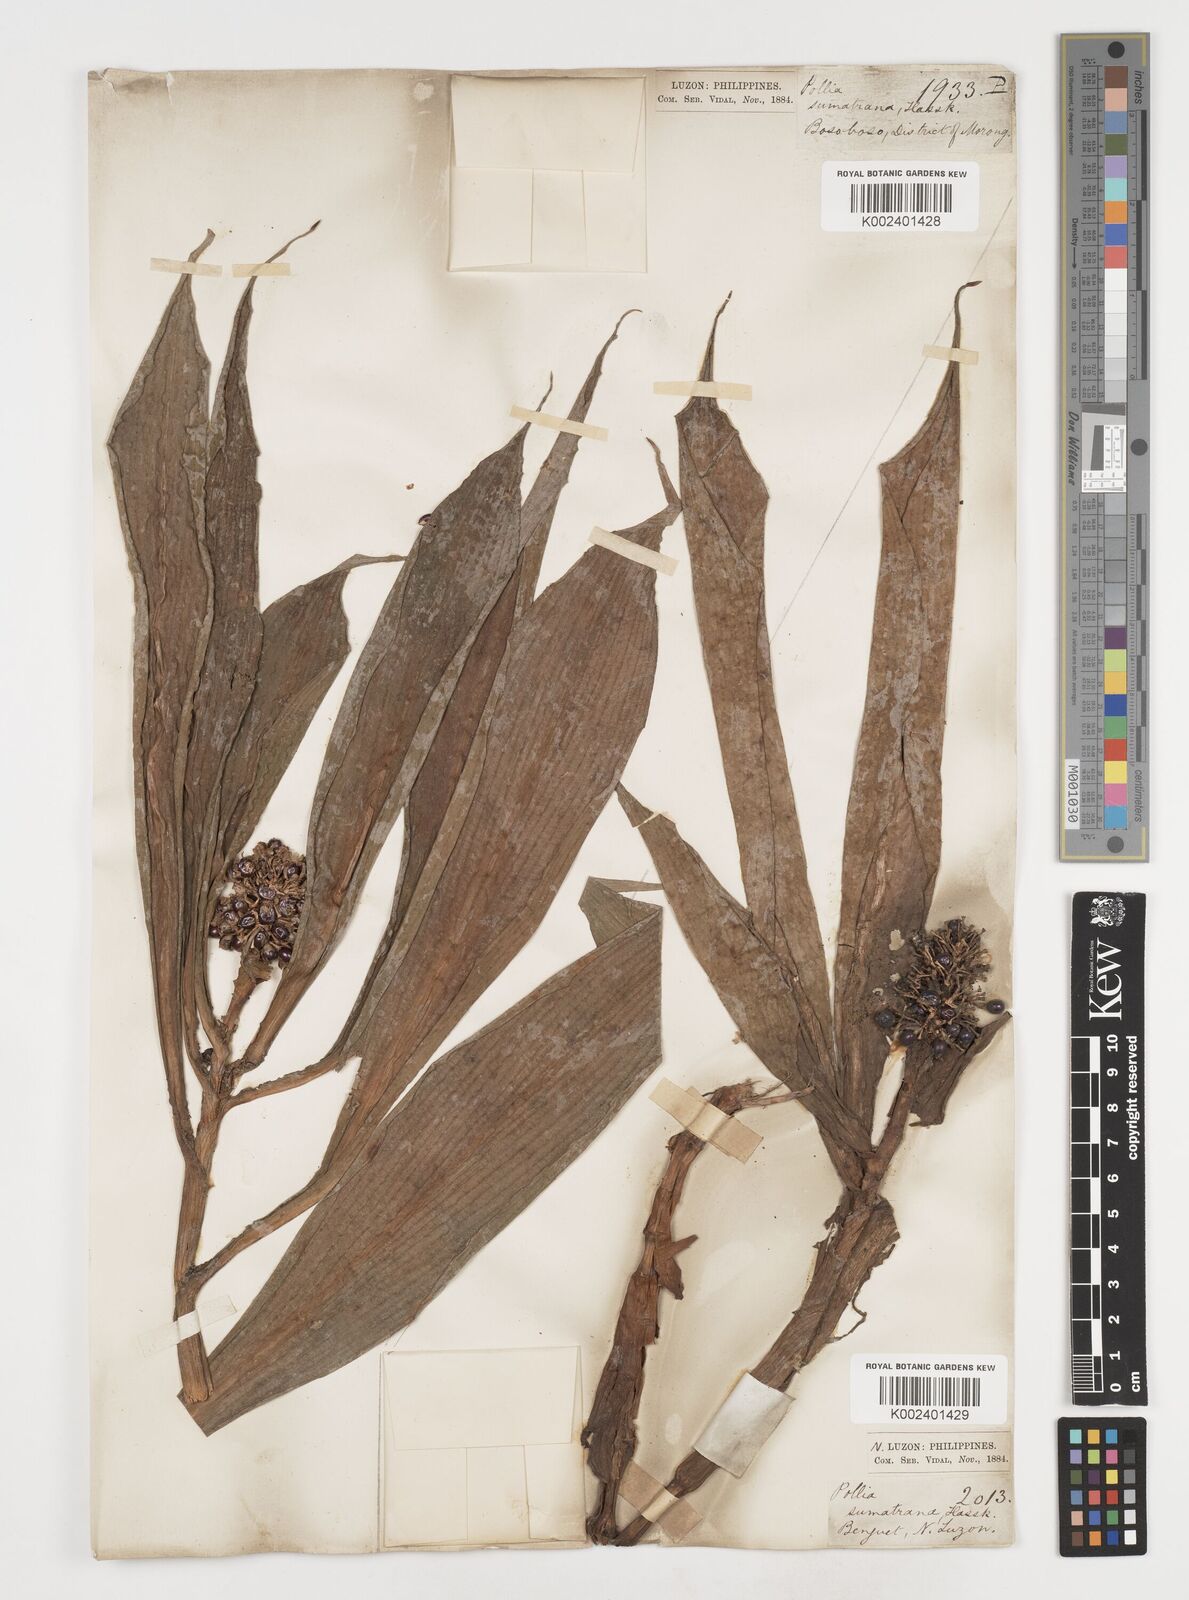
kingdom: Plantae
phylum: Tracheophyta
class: Liliopsida
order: Commelinales
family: Commelinaceae
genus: Pollia
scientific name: Pollia sumatrana
